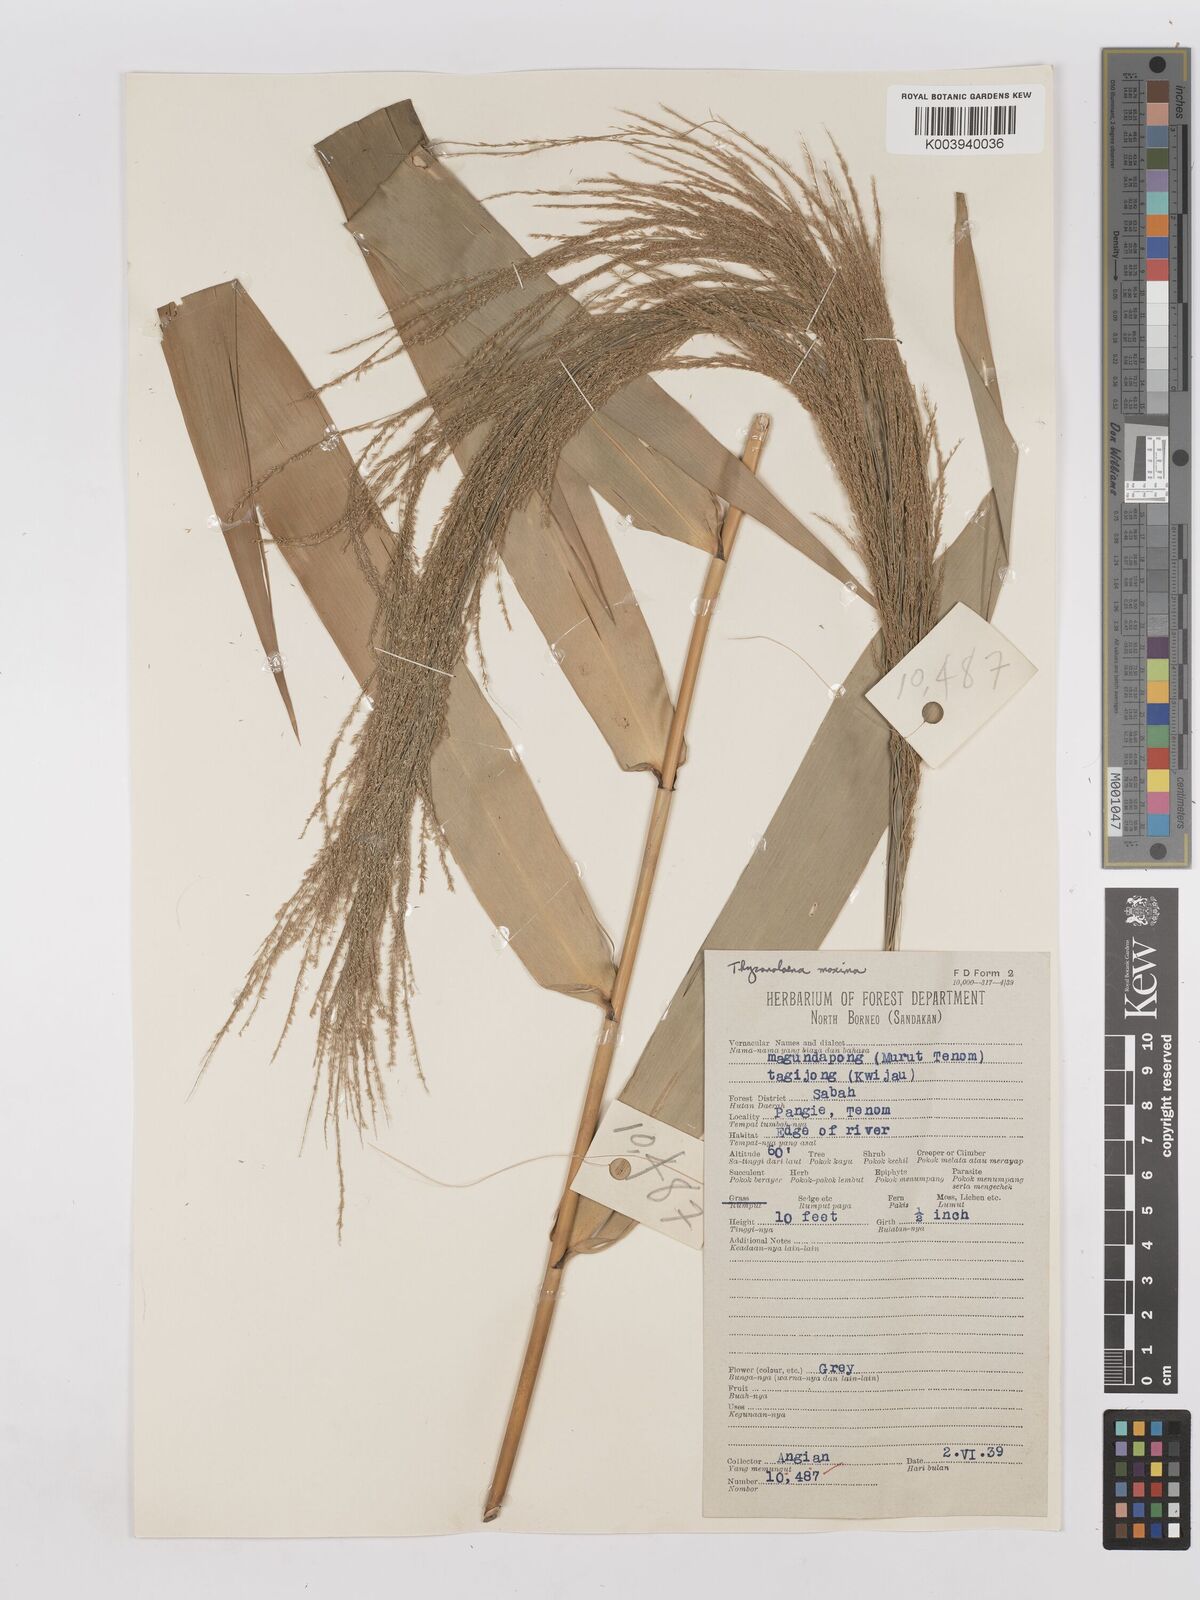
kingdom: Plantae
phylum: Tracheophyta
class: Liliopsida
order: Poales
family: Poaceae
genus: Thysanolaena
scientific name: Thysanolaena latifolia
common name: Tiger grass
